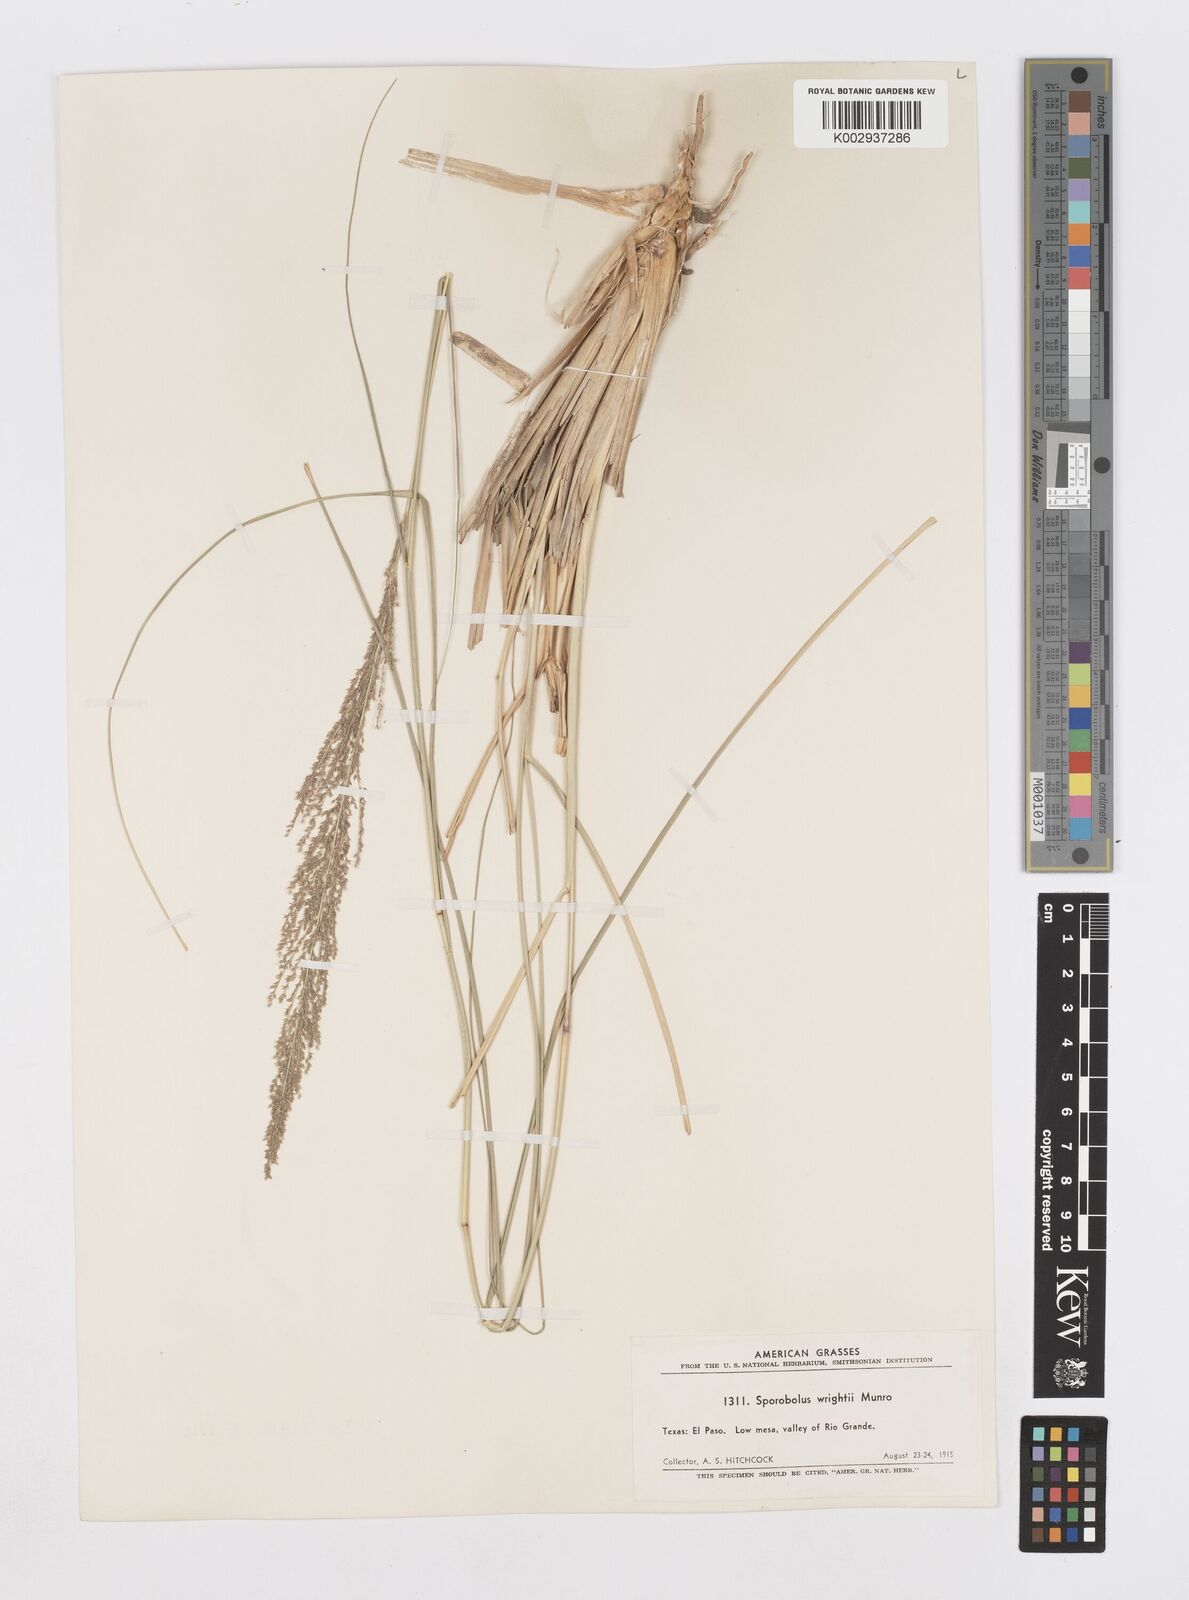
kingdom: Plantae
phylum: Tracheophyta
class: Liliopsida
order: Poales
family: Poaceae
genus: Sporobolus
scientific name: Sporobolus wrightii
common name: Big alkali sacaton
